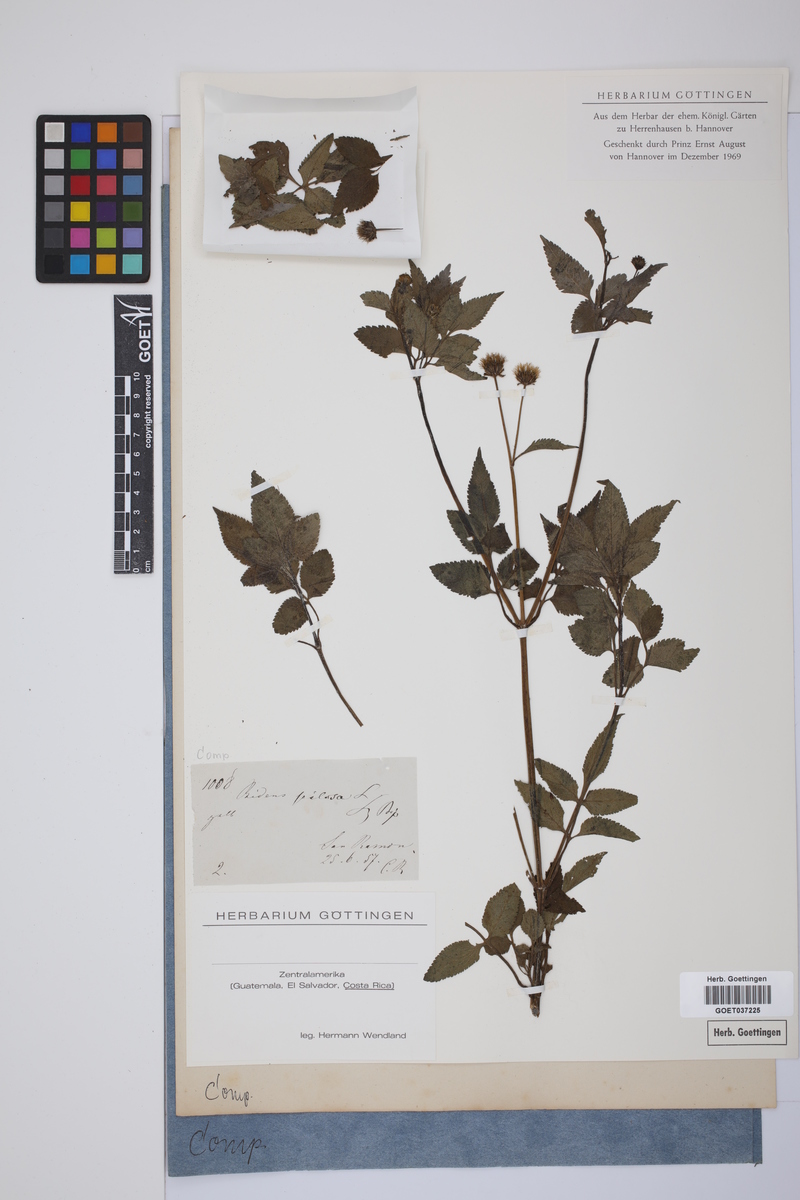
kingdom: Plantae
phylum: Tracheophyta
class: Magnoliopsida
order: Asterales
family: Asteraceae
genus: Bidens
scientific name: Bidens pilosa
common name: Black-jack
